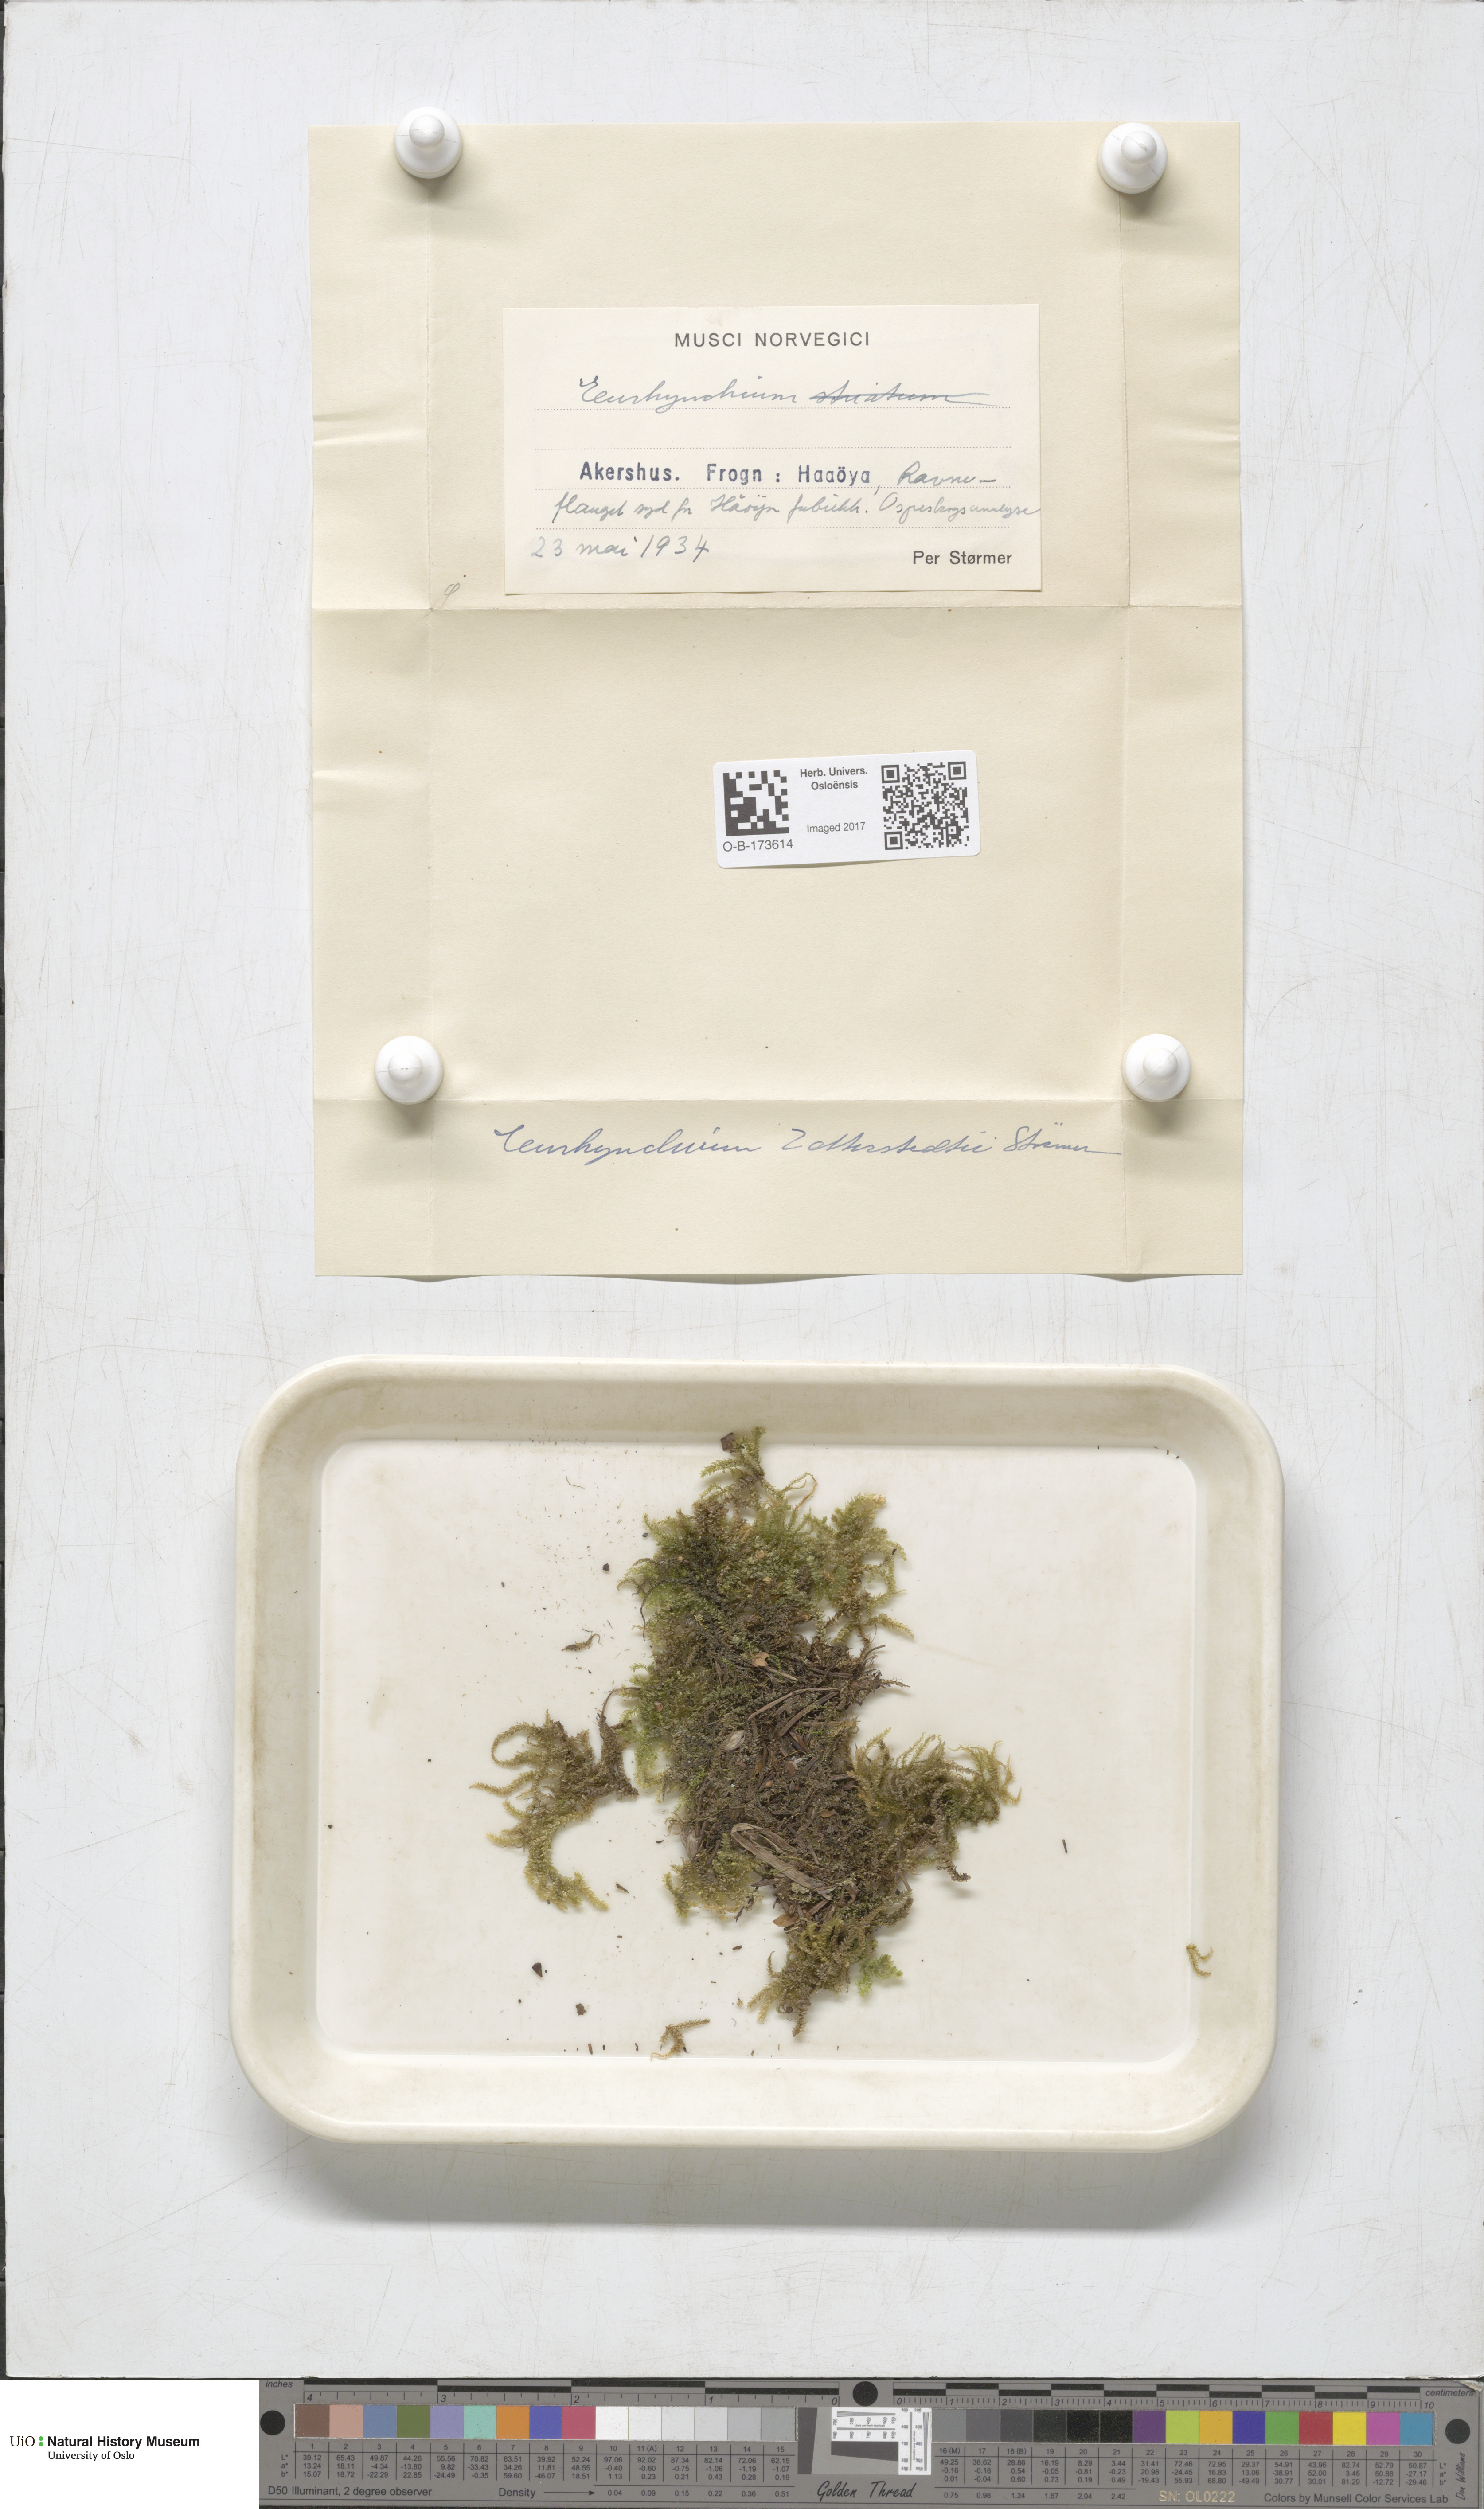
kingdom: Plantae
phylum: Bryophyta
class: Bryopsida
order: Hypnales
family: Brachytheciaceae
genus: Eurhynchium
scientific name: Eurhynchium angustirete
